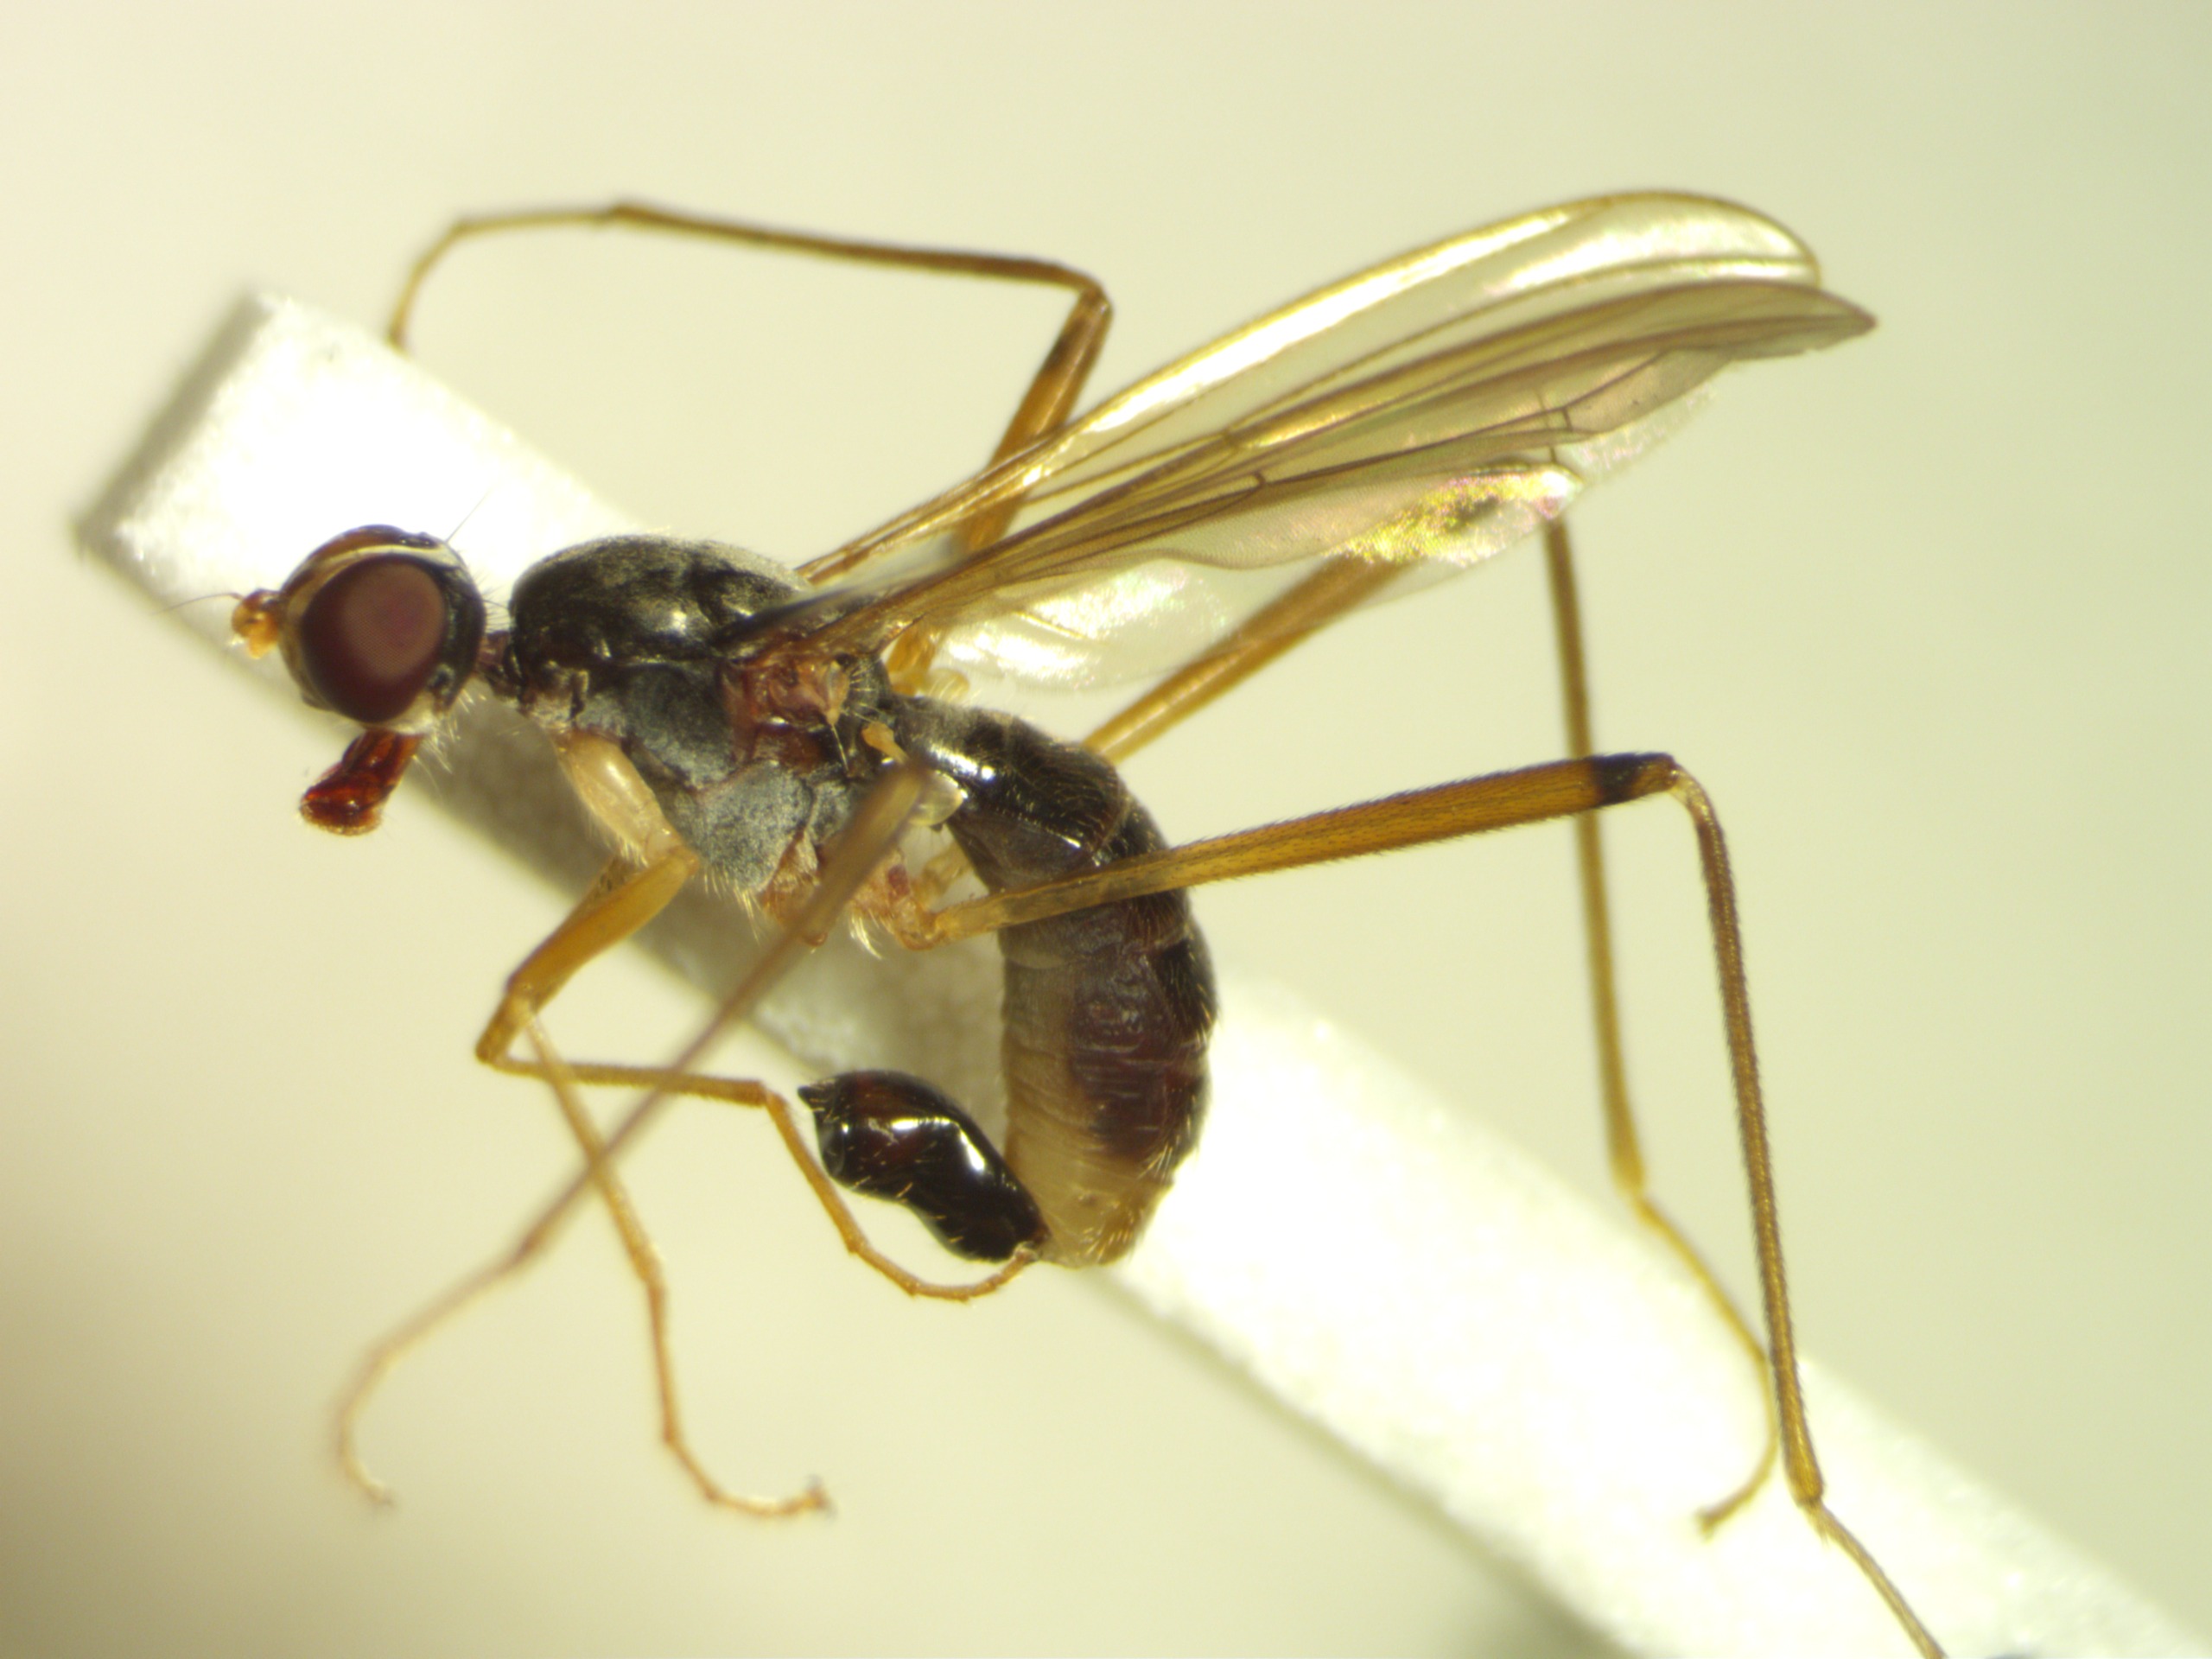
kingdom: Animalia
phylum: Arthropoda
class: Insecta
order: Diptera
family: Micropezidae
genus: Compsobata
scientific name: Compsobata cibaria
